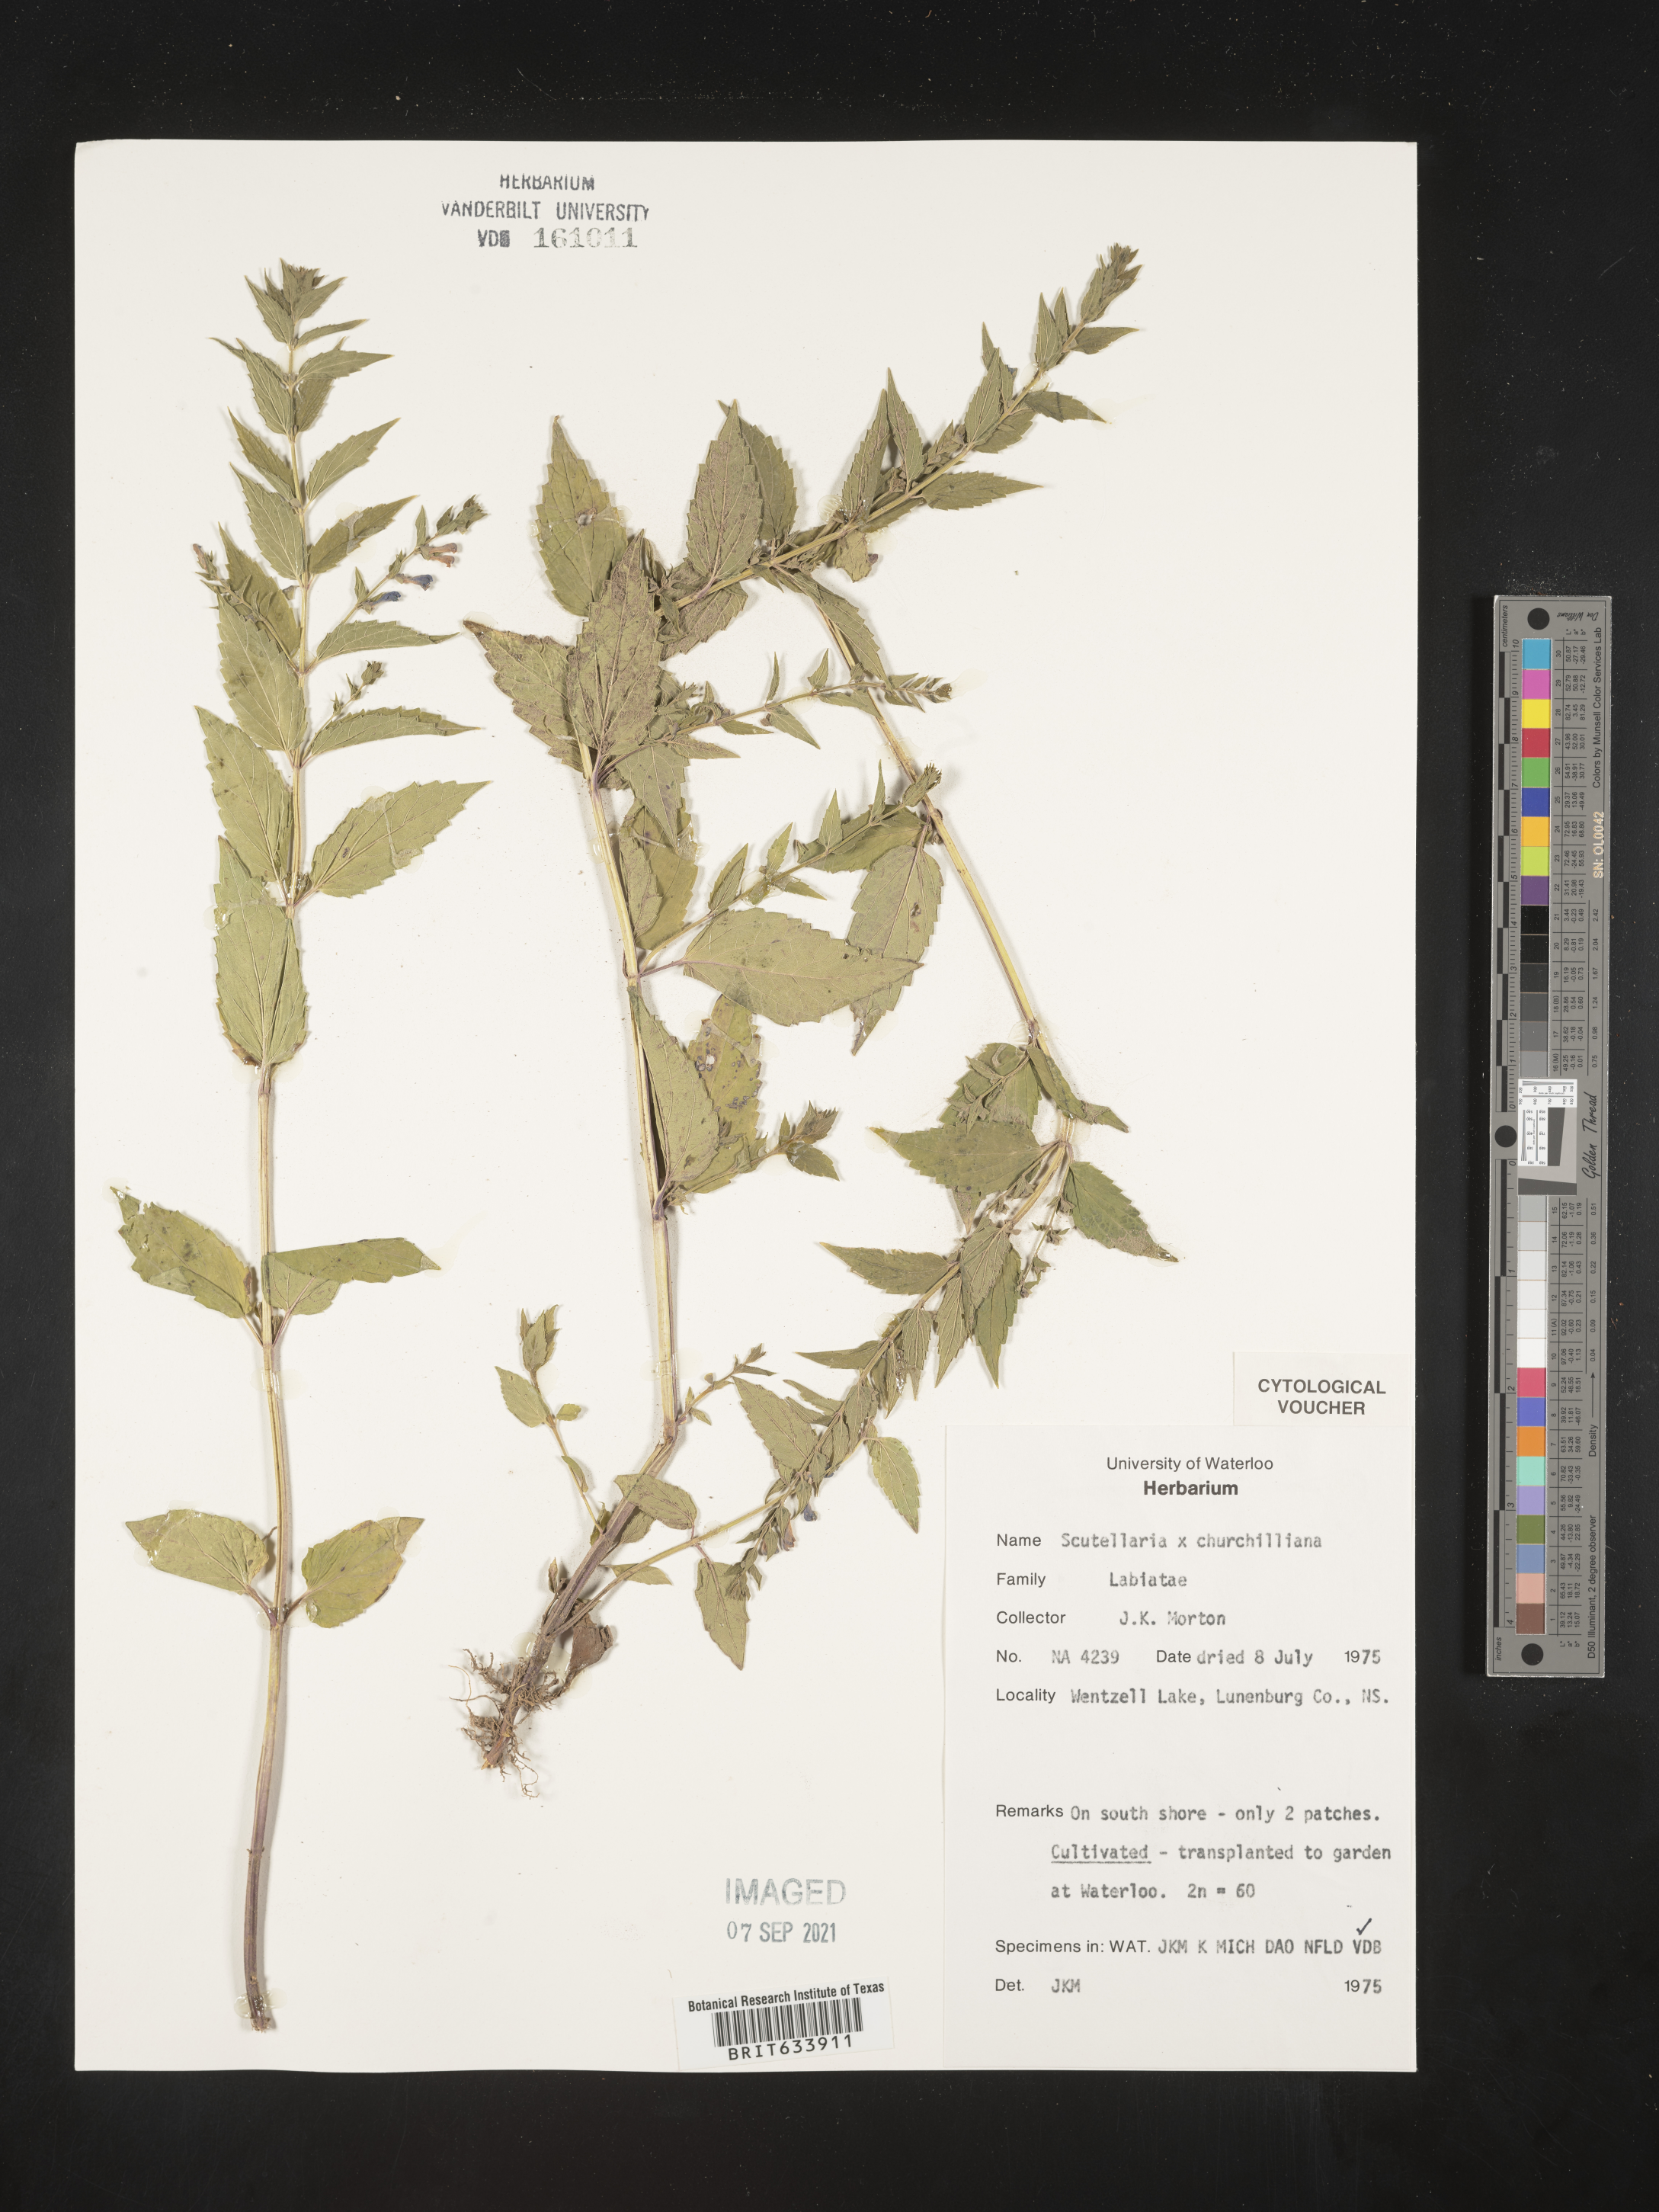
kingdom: Plantae
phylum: Tracheophyta
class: Magnoliopsida
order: Lamiales
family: Lamiaceae
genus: Scutellaria
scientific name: Scutellaria
